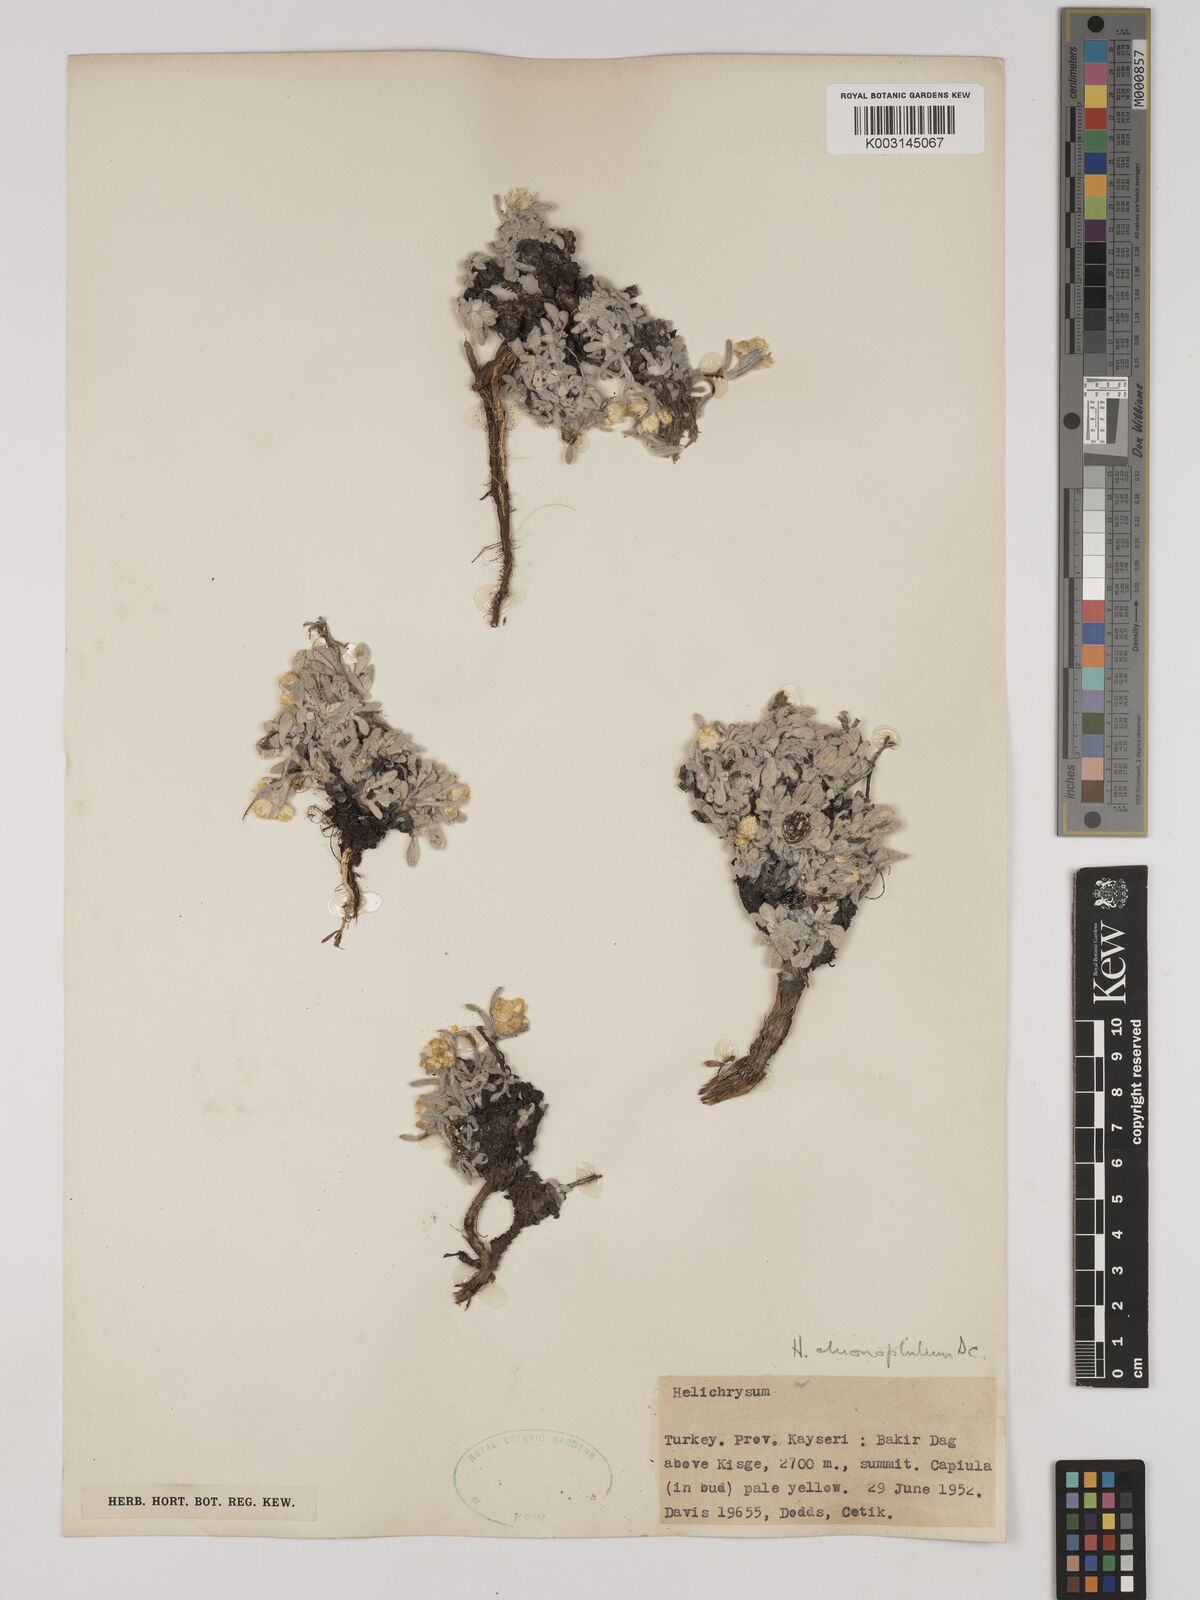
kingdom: Plantae
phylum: Tracheophyta
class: Magnoliopsida
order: Asterales
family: Asteraceae
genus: Helichrysum
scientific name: Helichrysum pallasii
